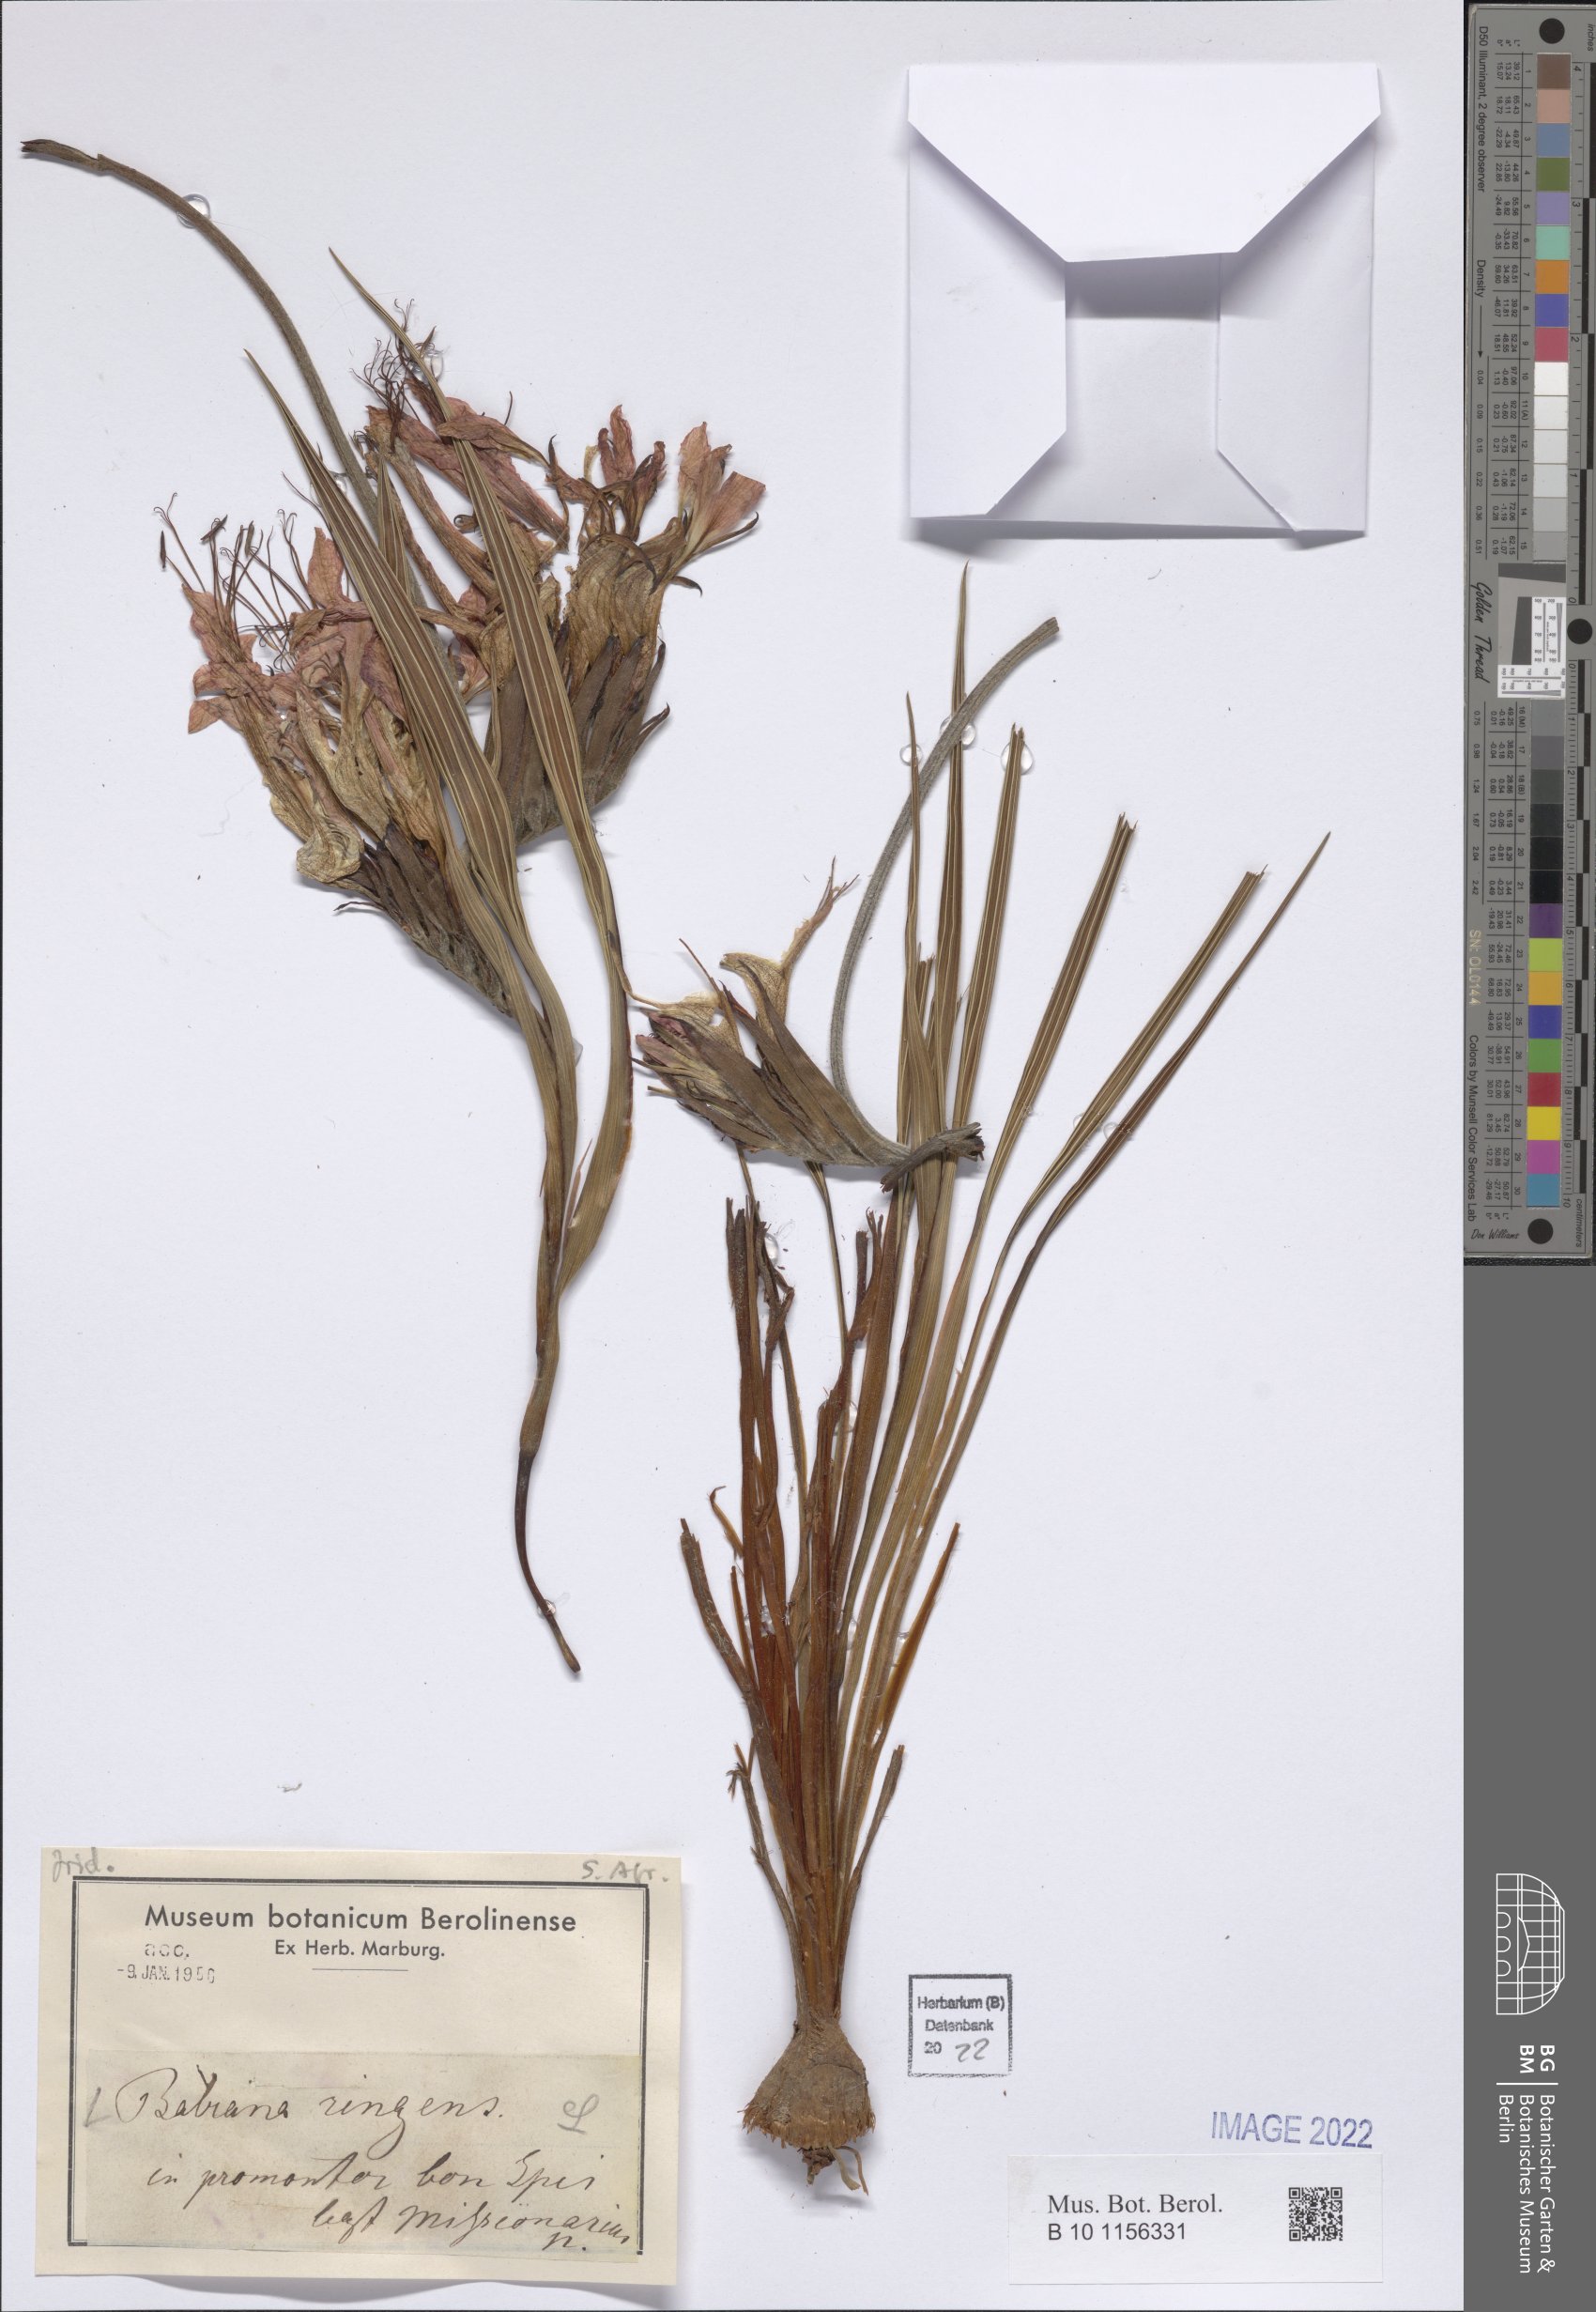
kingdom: Plantae
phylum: Tracheophyta
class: Liliopsida
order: Asparagales
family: Iridaceae
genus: Babiana
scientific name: Babiana ringens
